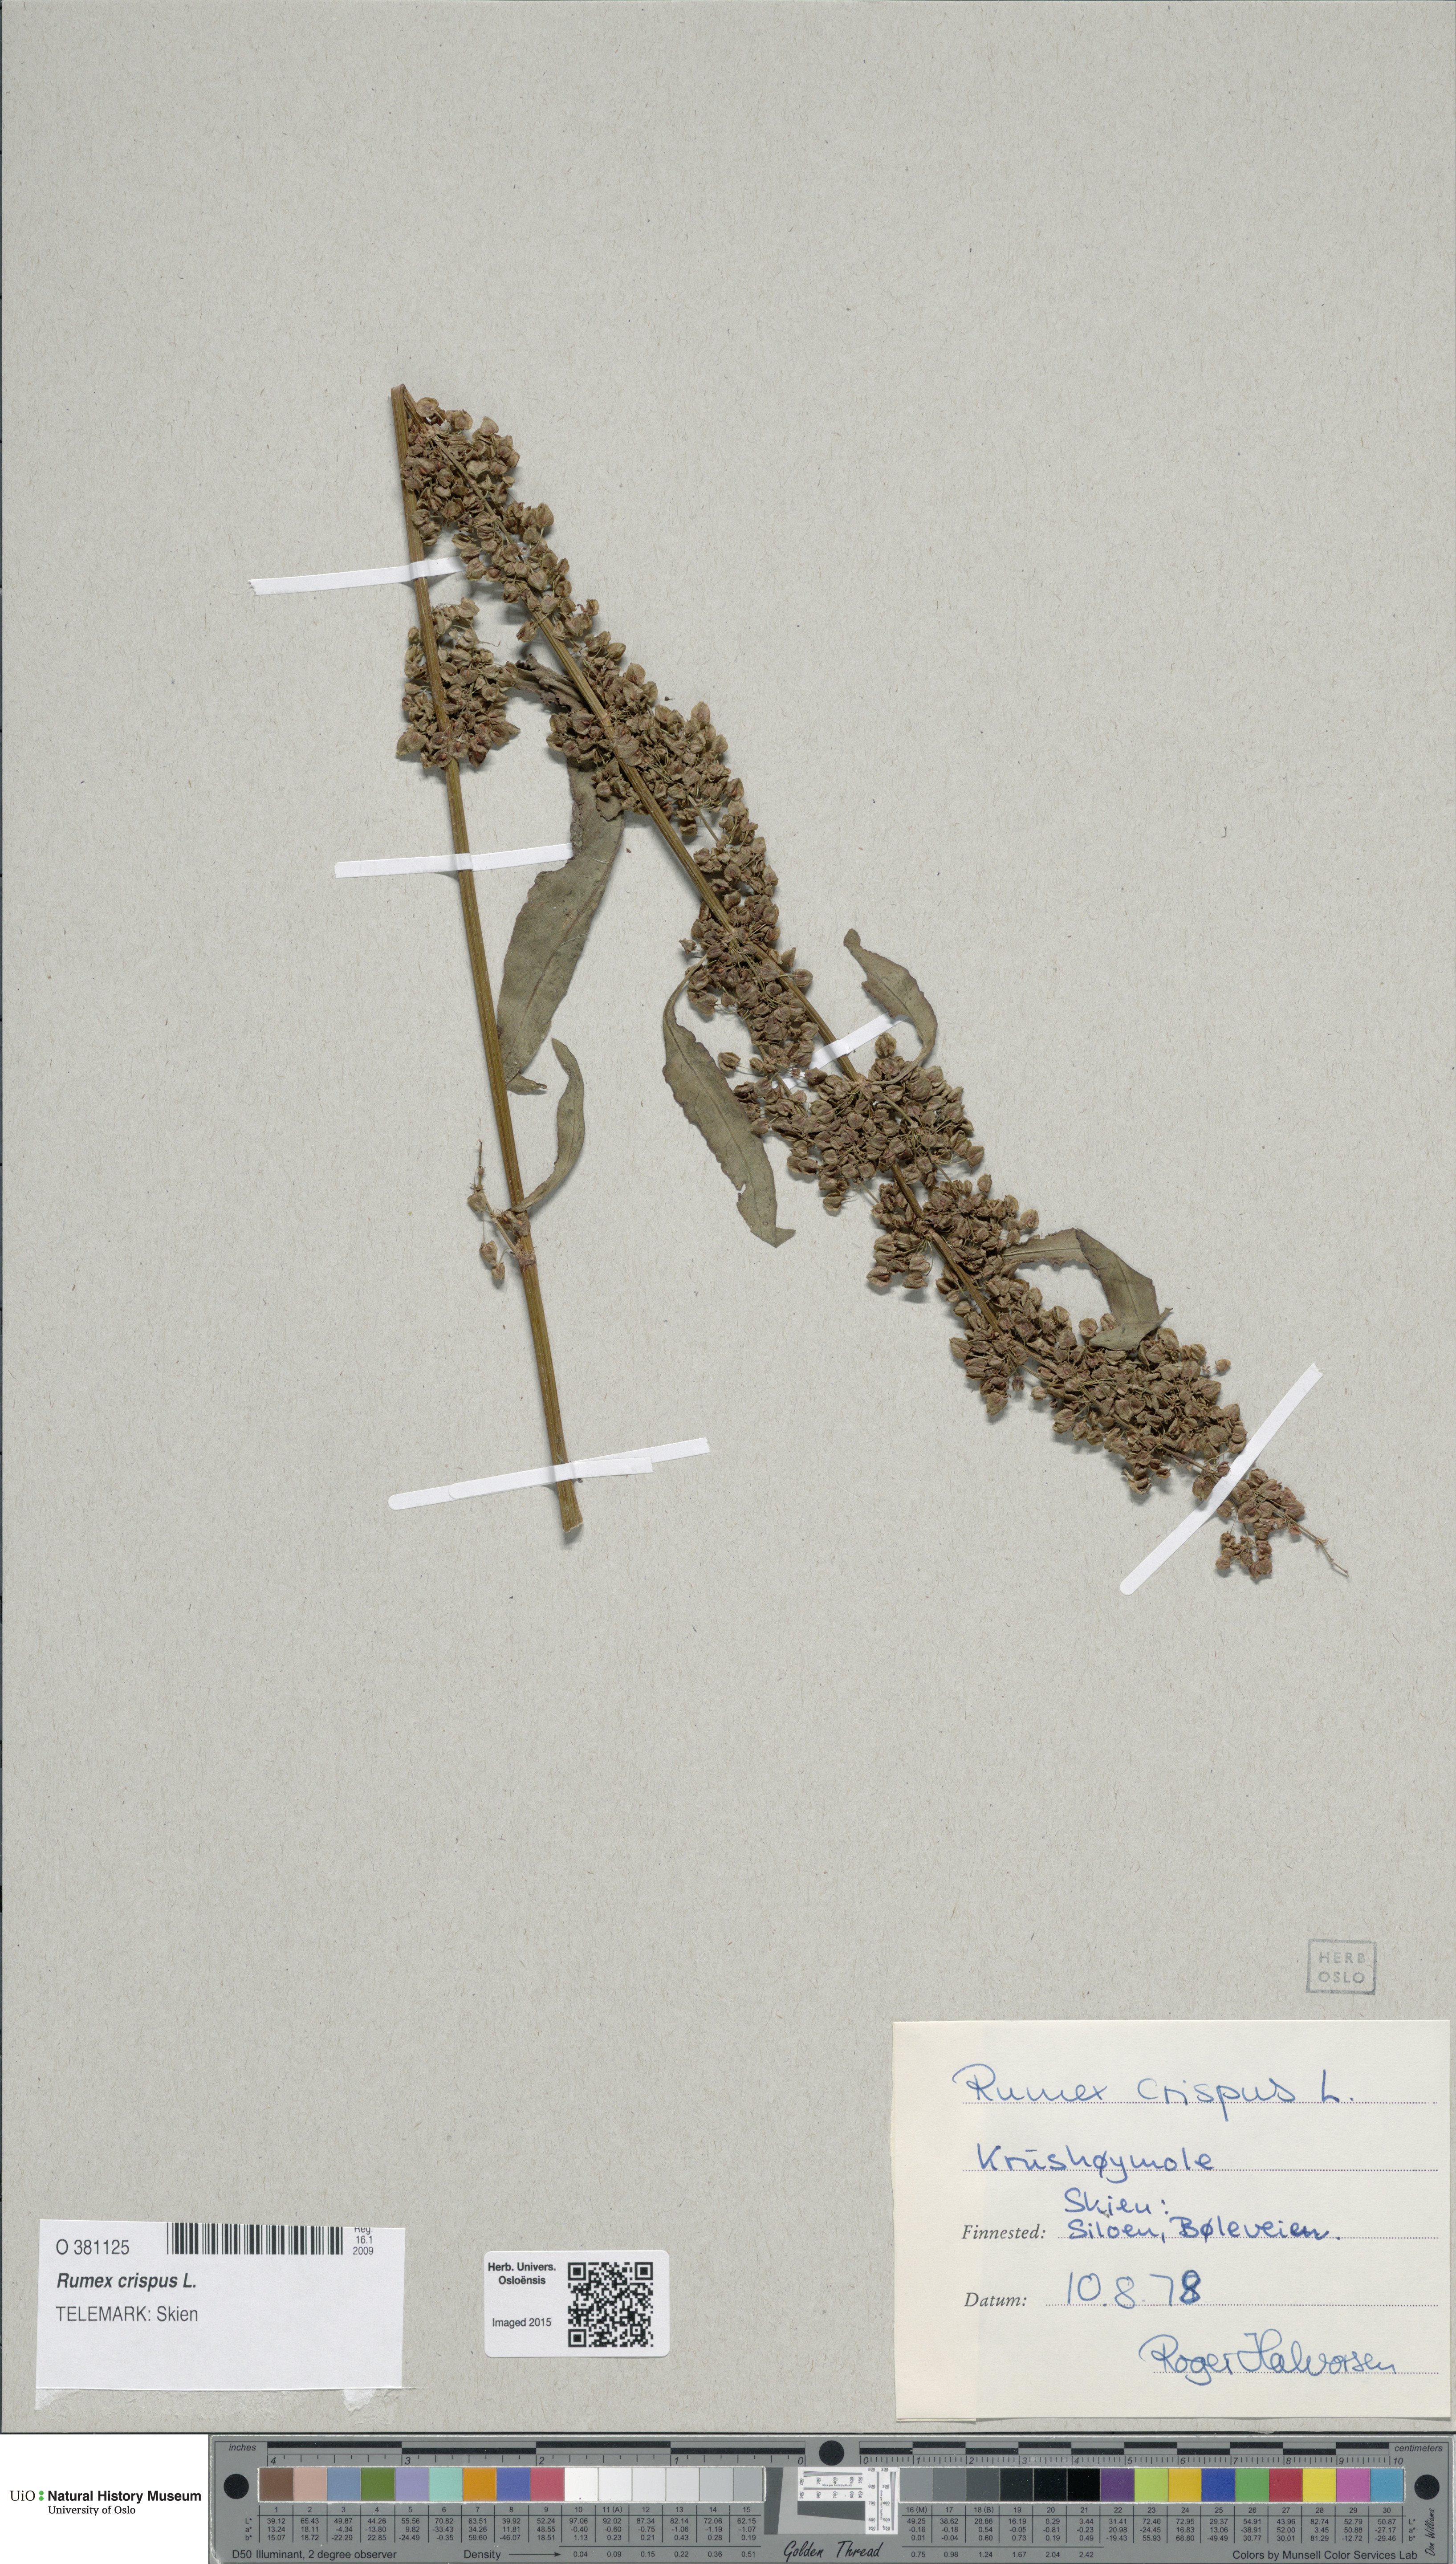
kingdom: Plantae
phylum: Tracheophyta
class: Magnoliopsida
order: Caryophyllales
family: Polygonaceae
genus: Rumex
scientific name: Rumex crispus
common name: Curled dock
